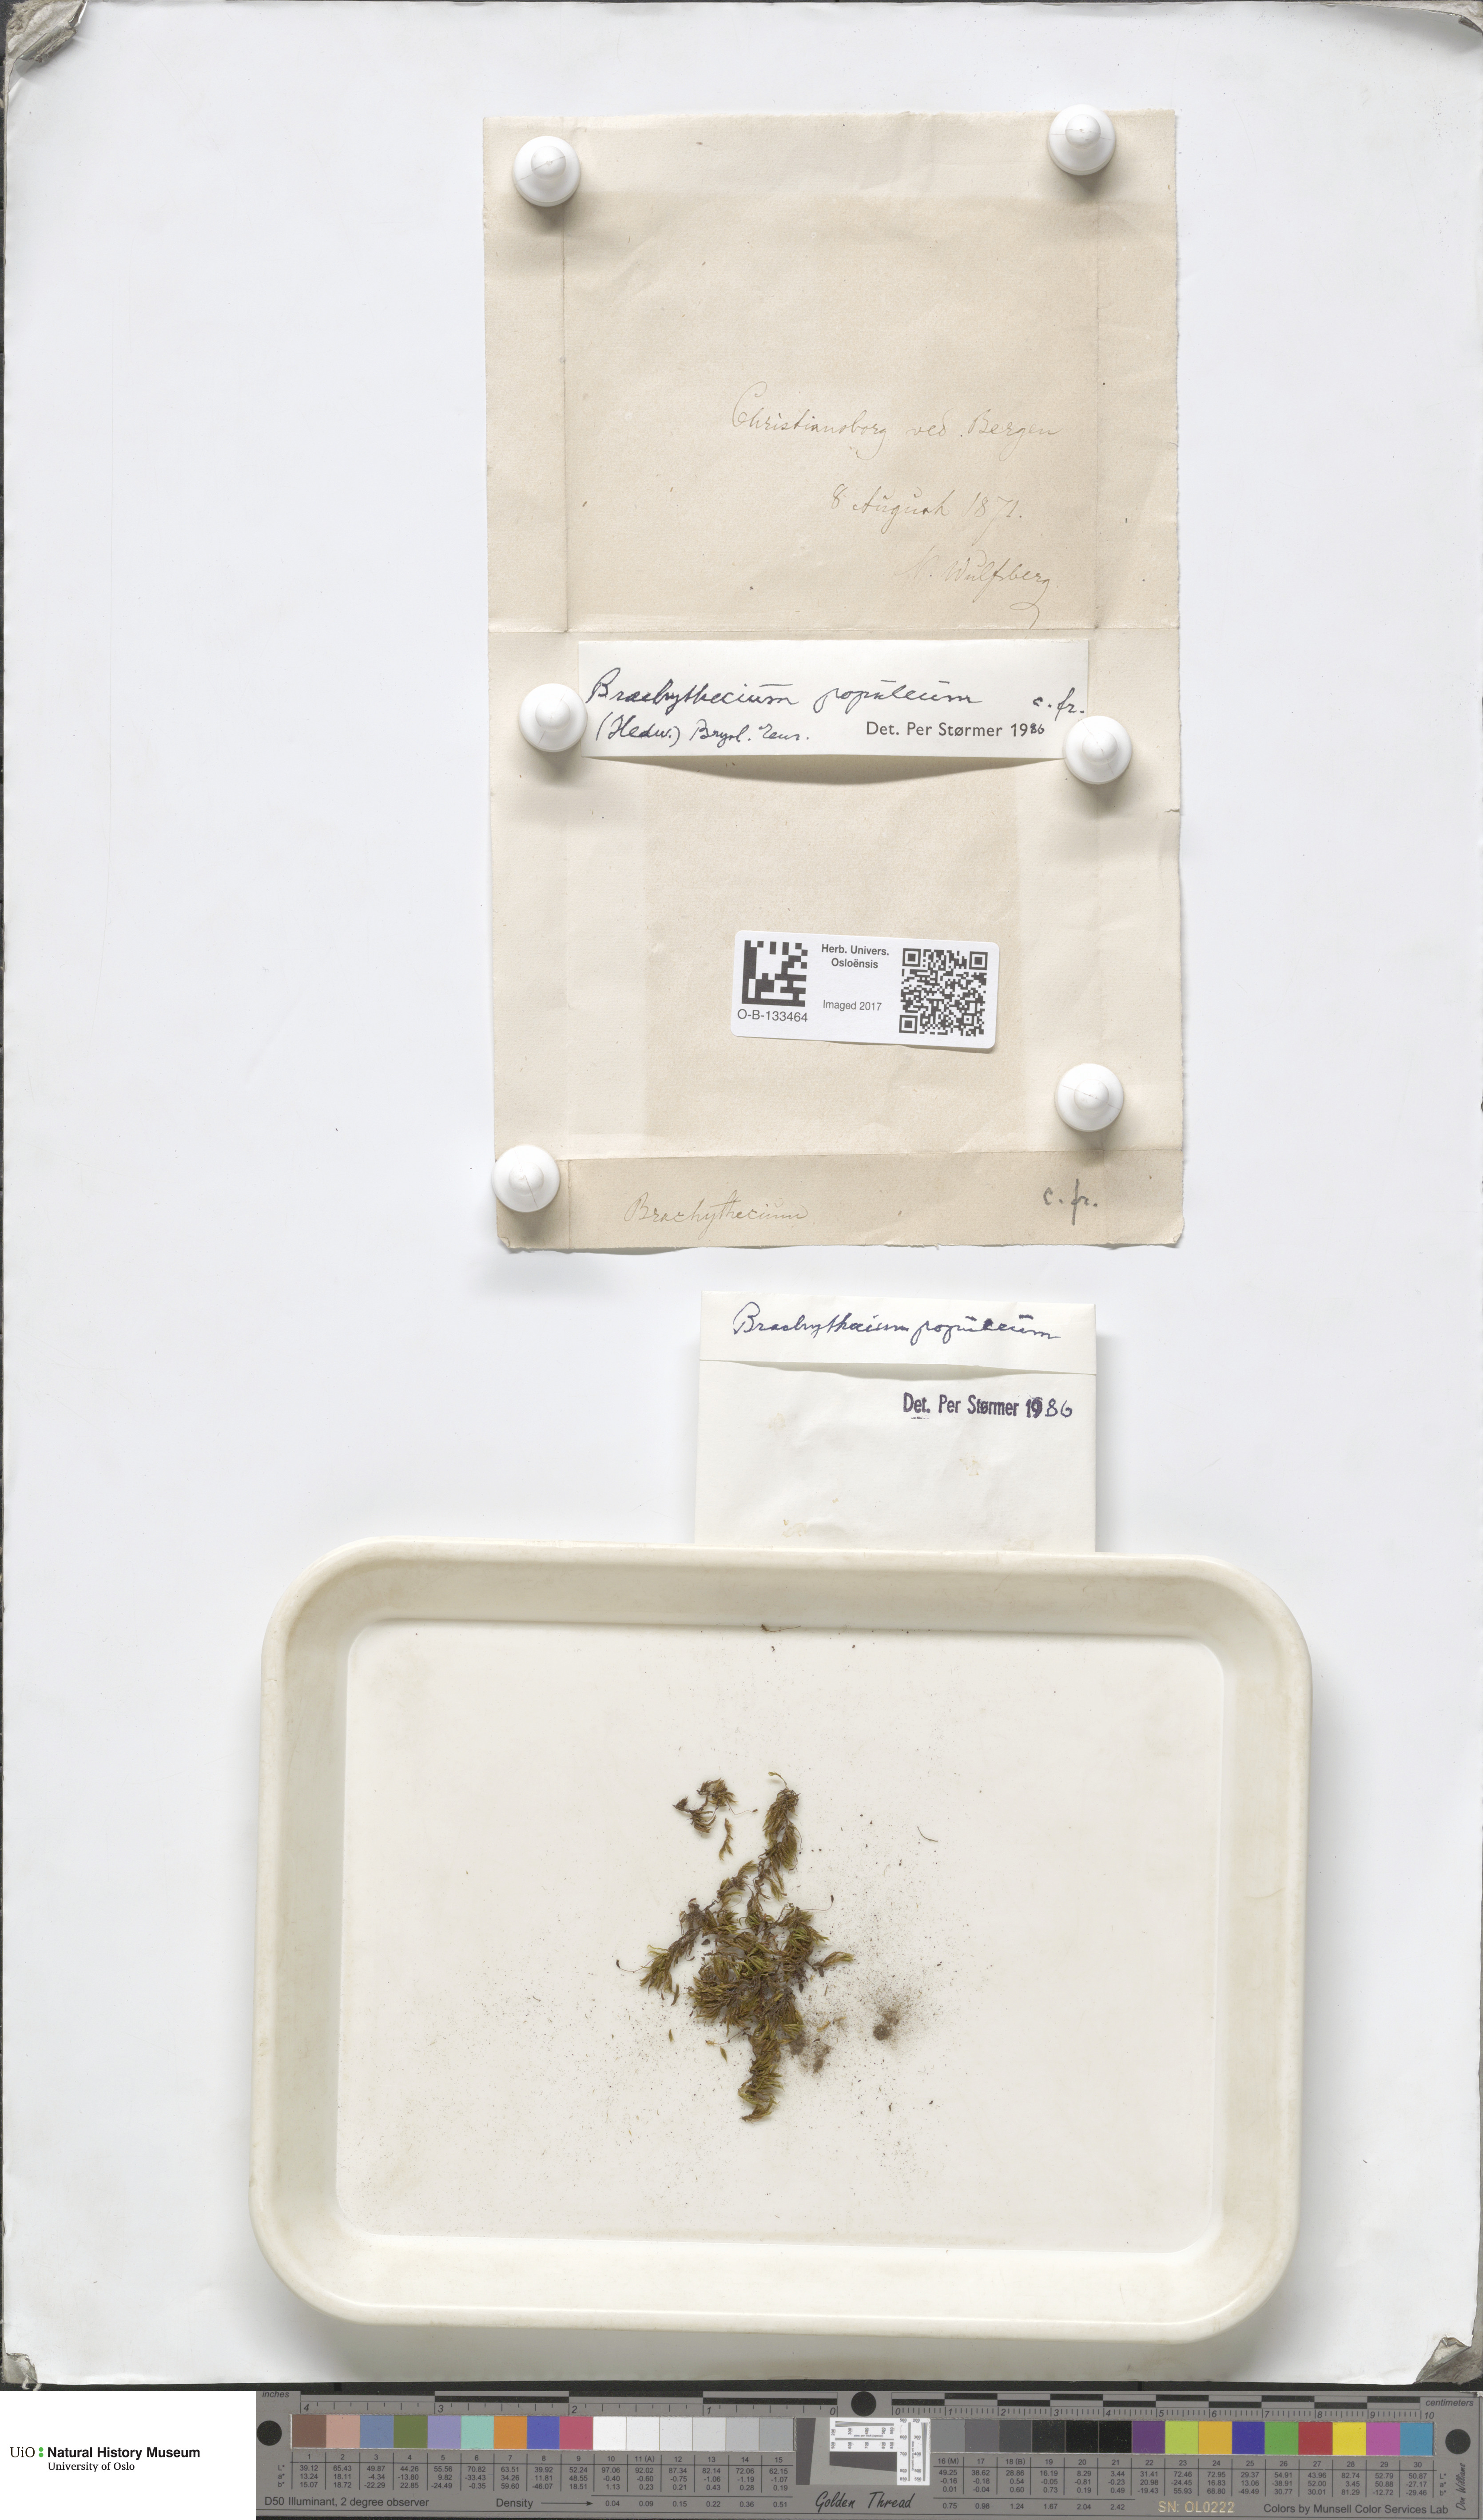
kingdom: Plantae
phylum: Bryophyta
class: Bryopsida
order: Hypnales
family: Brachytheciaceae
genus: Sciuro-hypnum
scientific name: Sciuro-hypnum plumosum
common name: Rusty feather-moss
